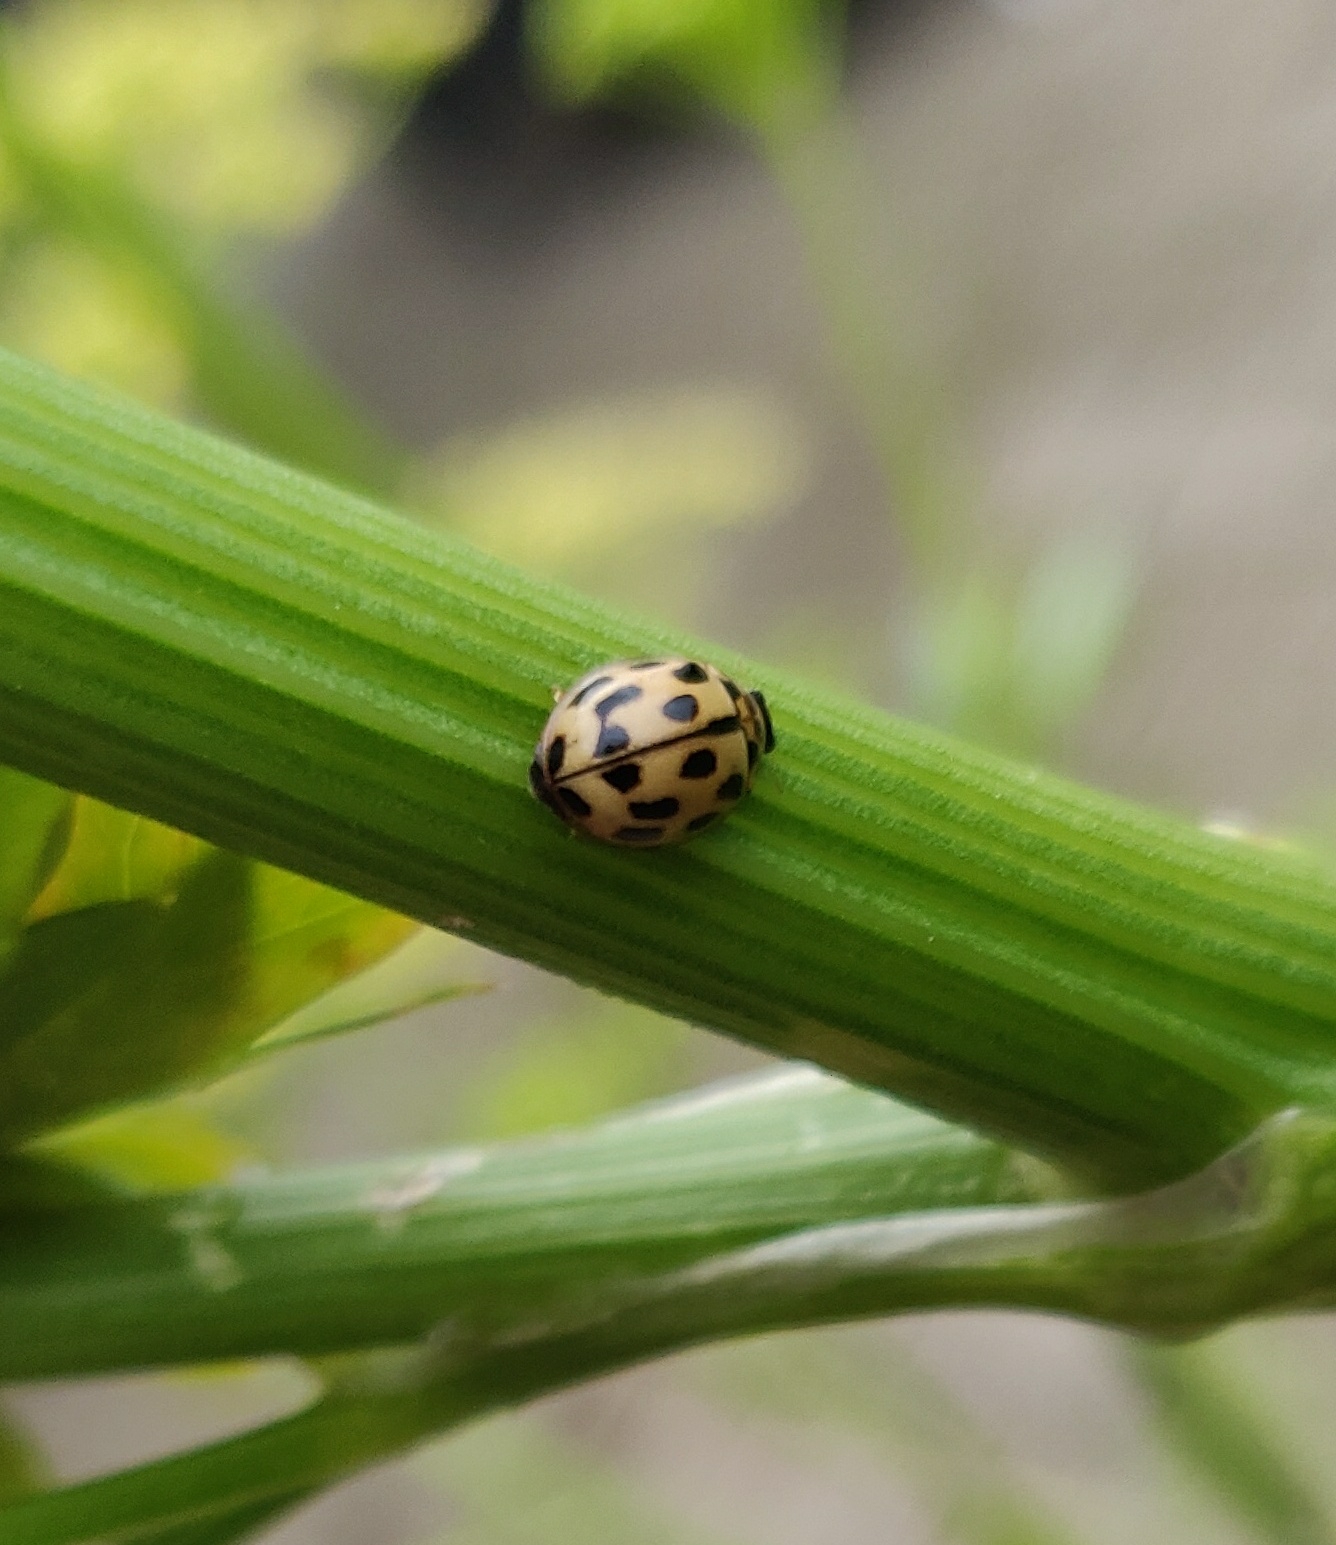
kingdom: Animalia
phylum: Arthropoda
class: Insecta
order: Coleoptera
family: Coccinellidae
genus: Propylaea
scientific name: Propylaea quatuordecimpunctata
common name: Skakbræt
